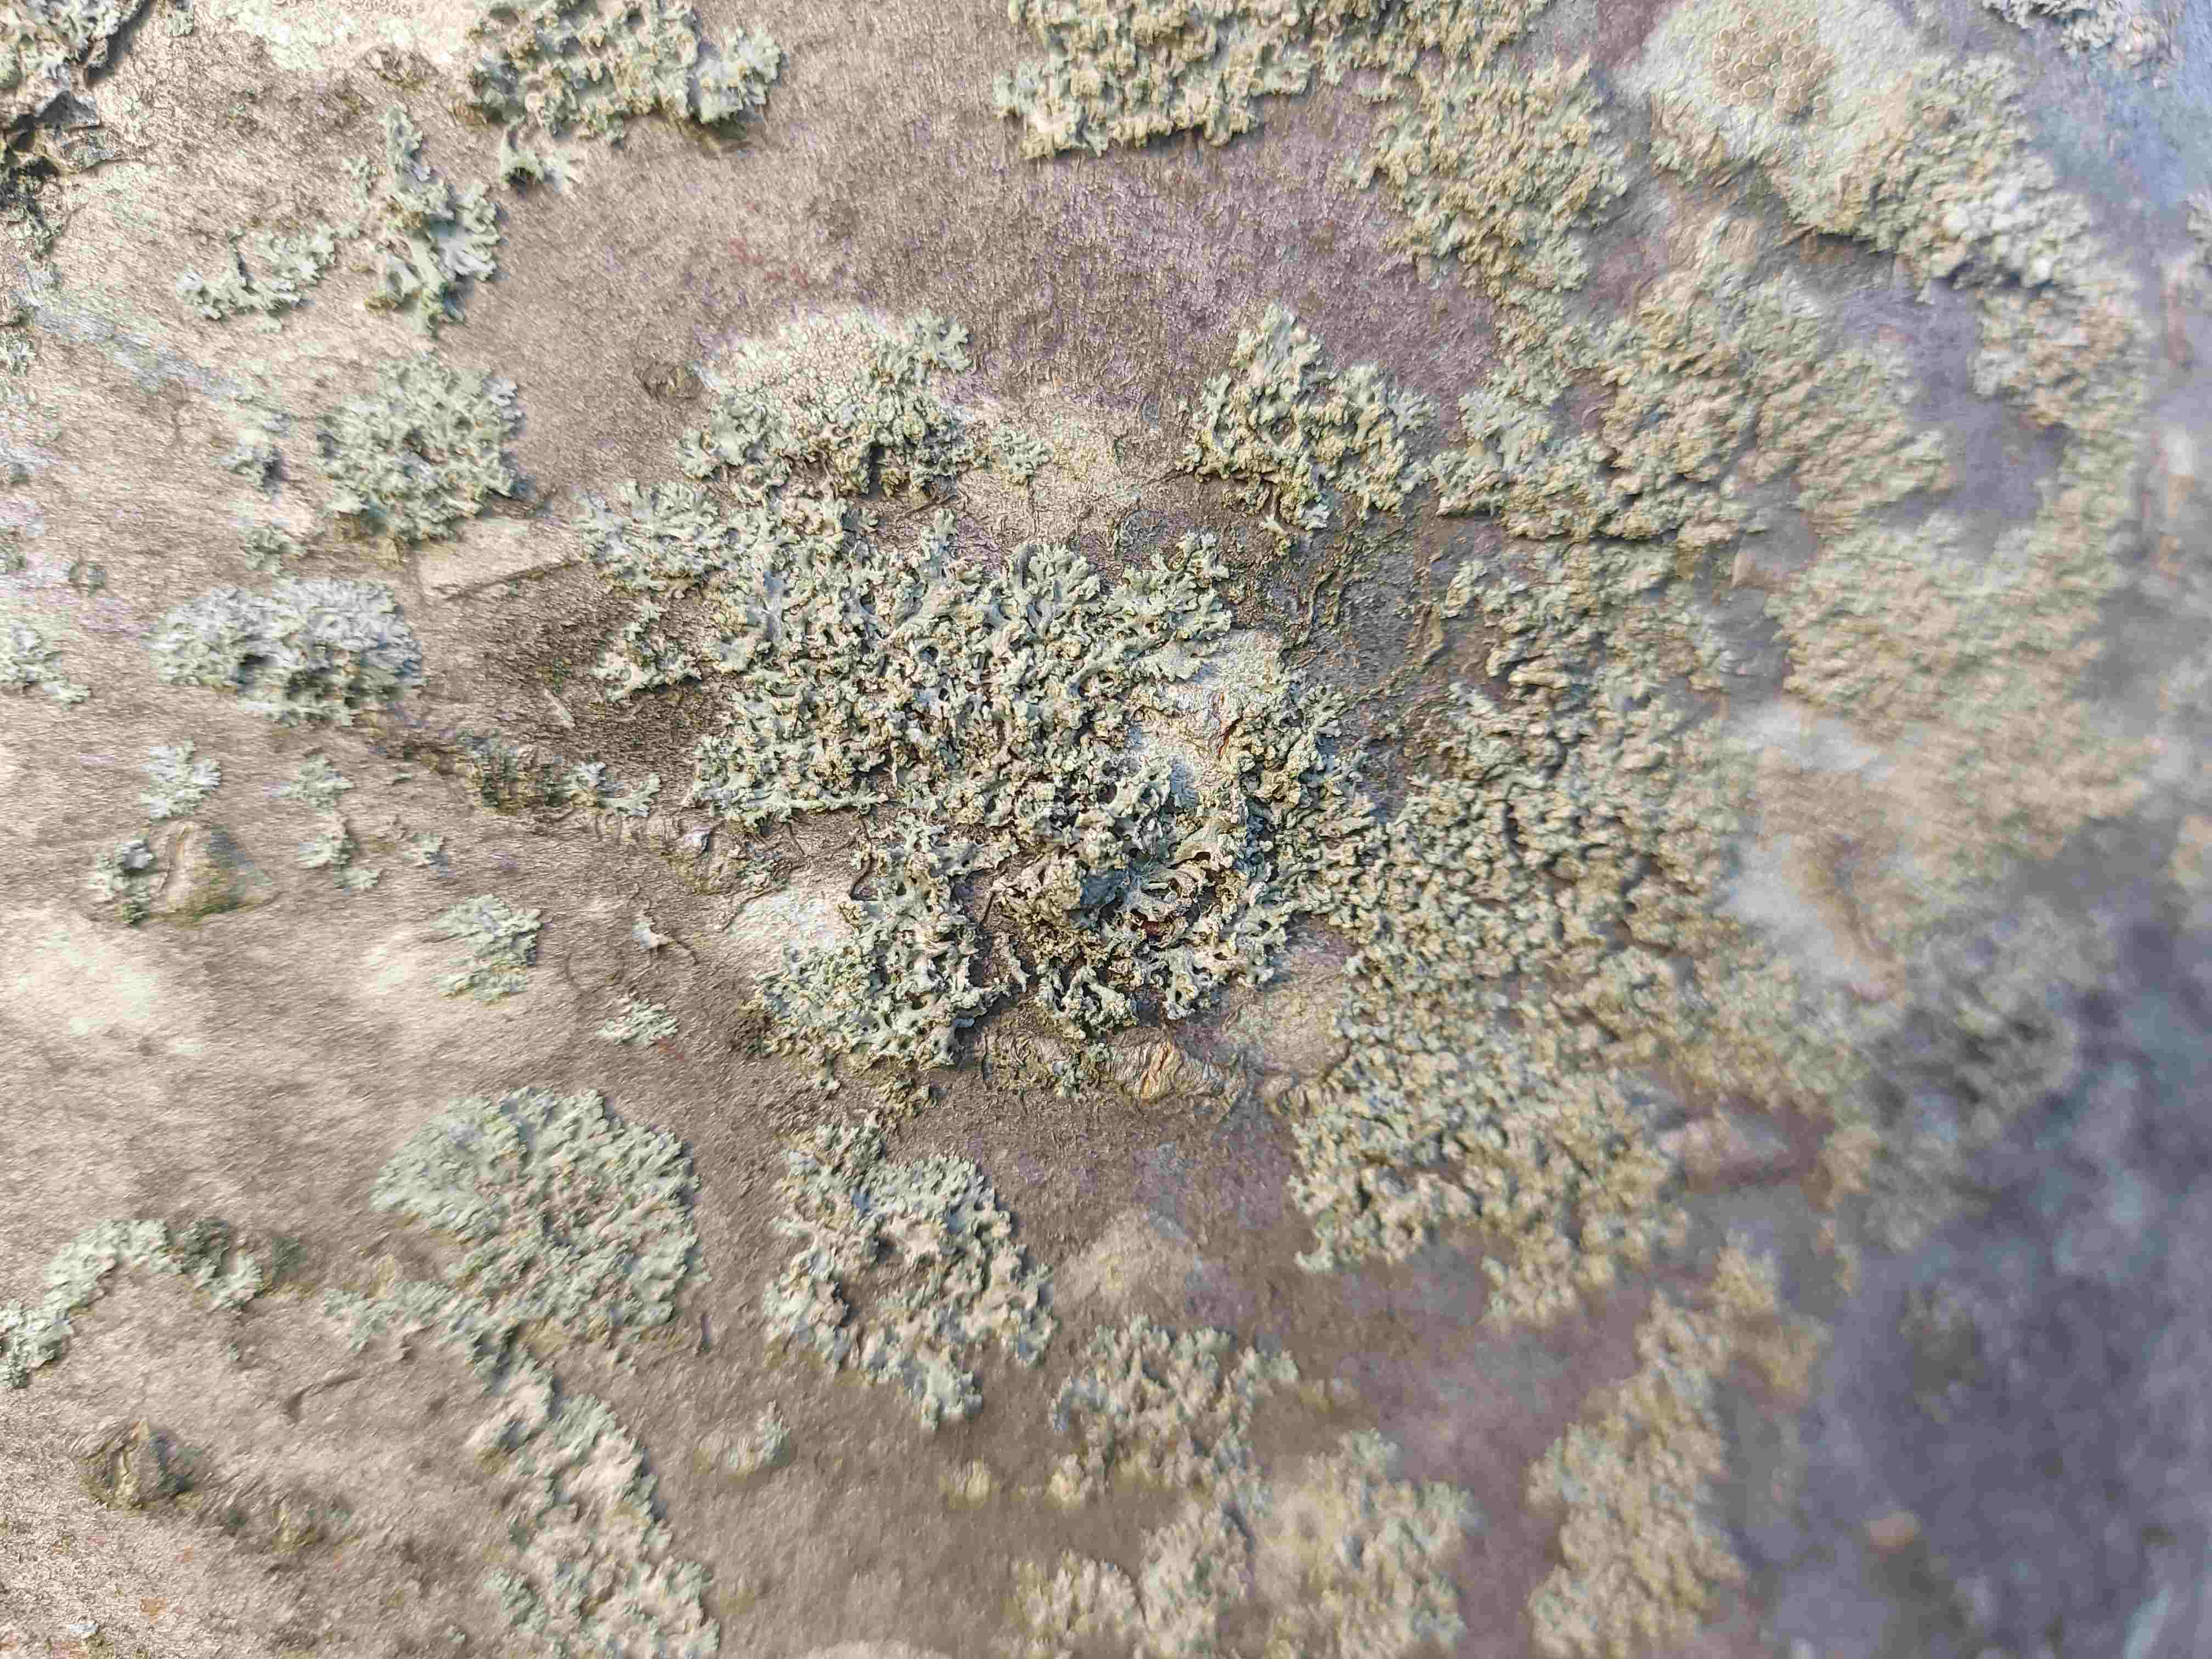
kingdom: Fungi
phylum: Ascomycota
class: Lecanoromycetes
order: Caliciales
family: Physciaceae
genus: Physcia
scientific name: Physcia tenella
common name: spæd rosetlav
